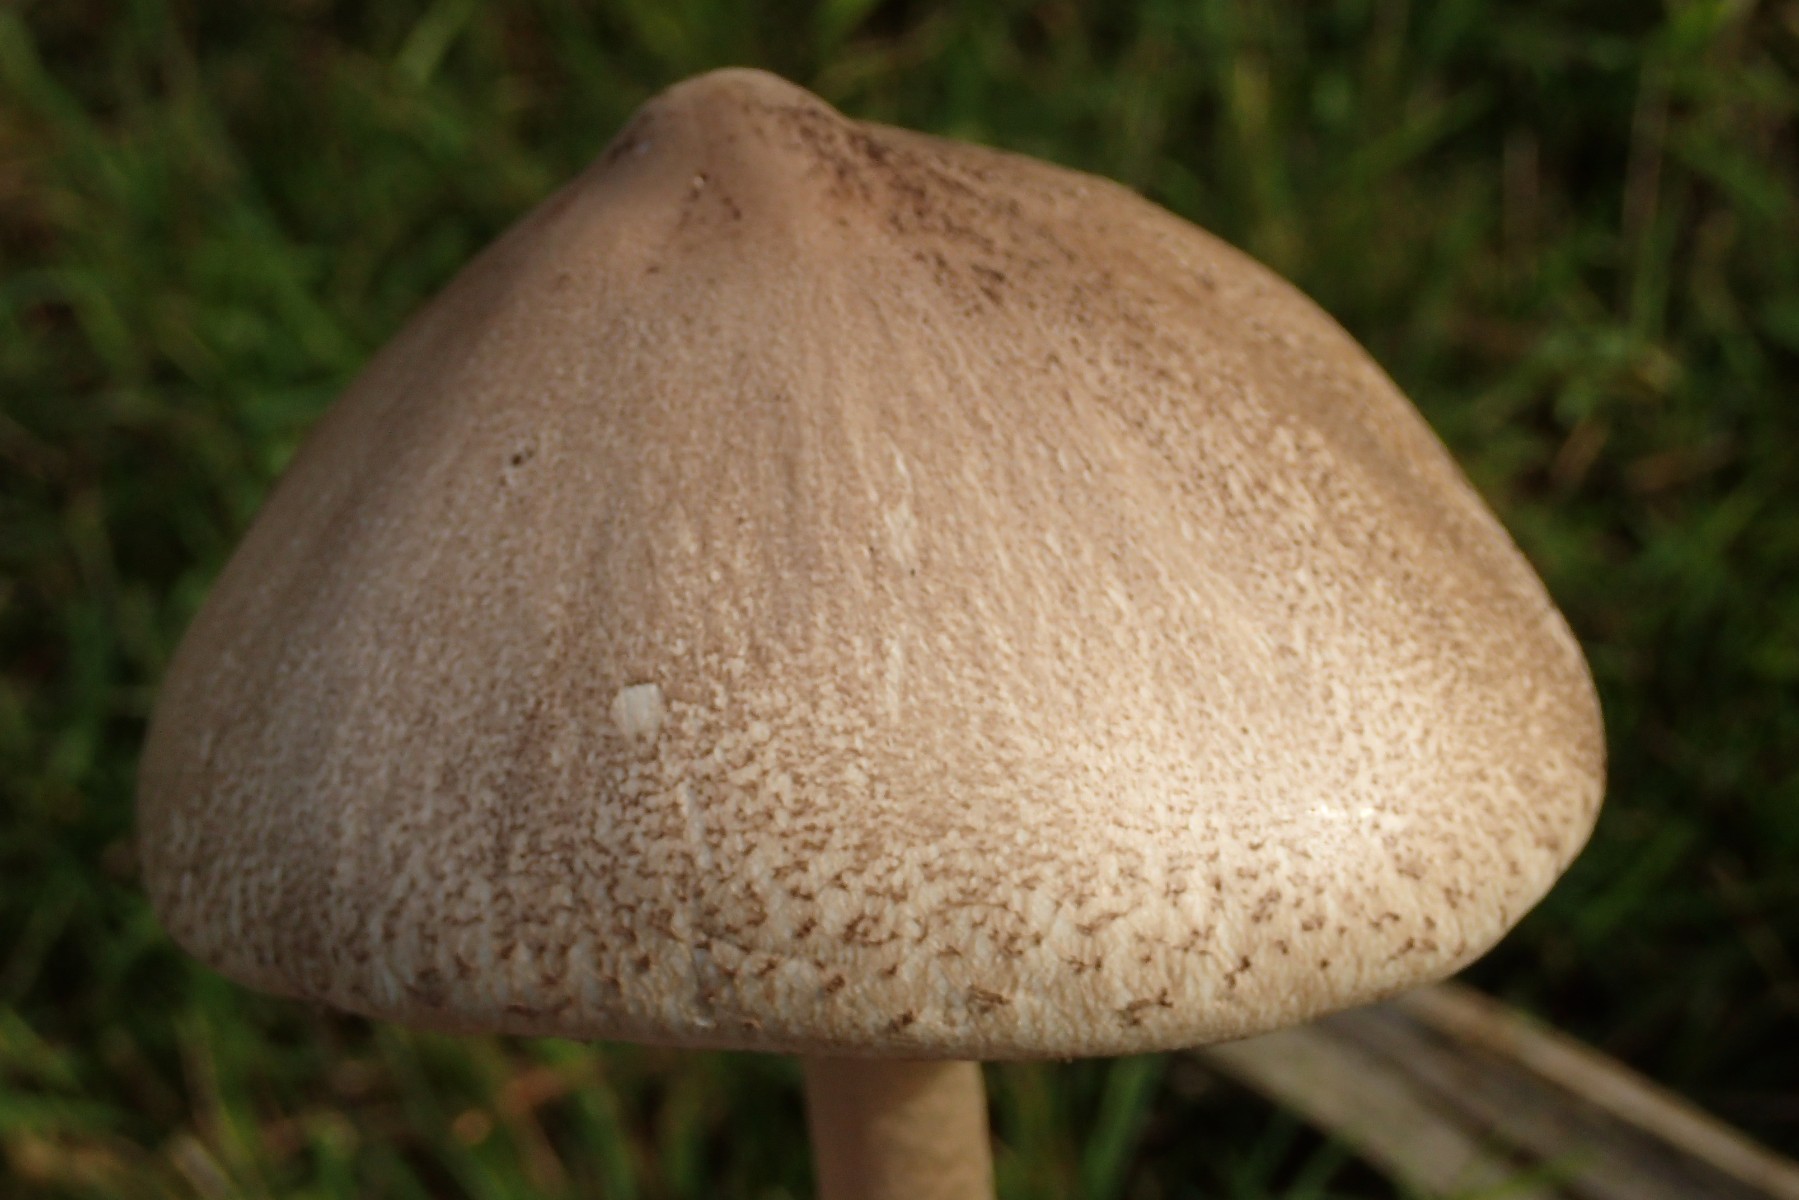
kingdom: Fungi
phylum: Basidiomycota
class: Agaricomycetes
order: Agaricales
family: Agaricaceae
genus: Macrolepiota
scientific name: Macrolepiota mastoidea
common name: puklet kæmpeparasolhat
